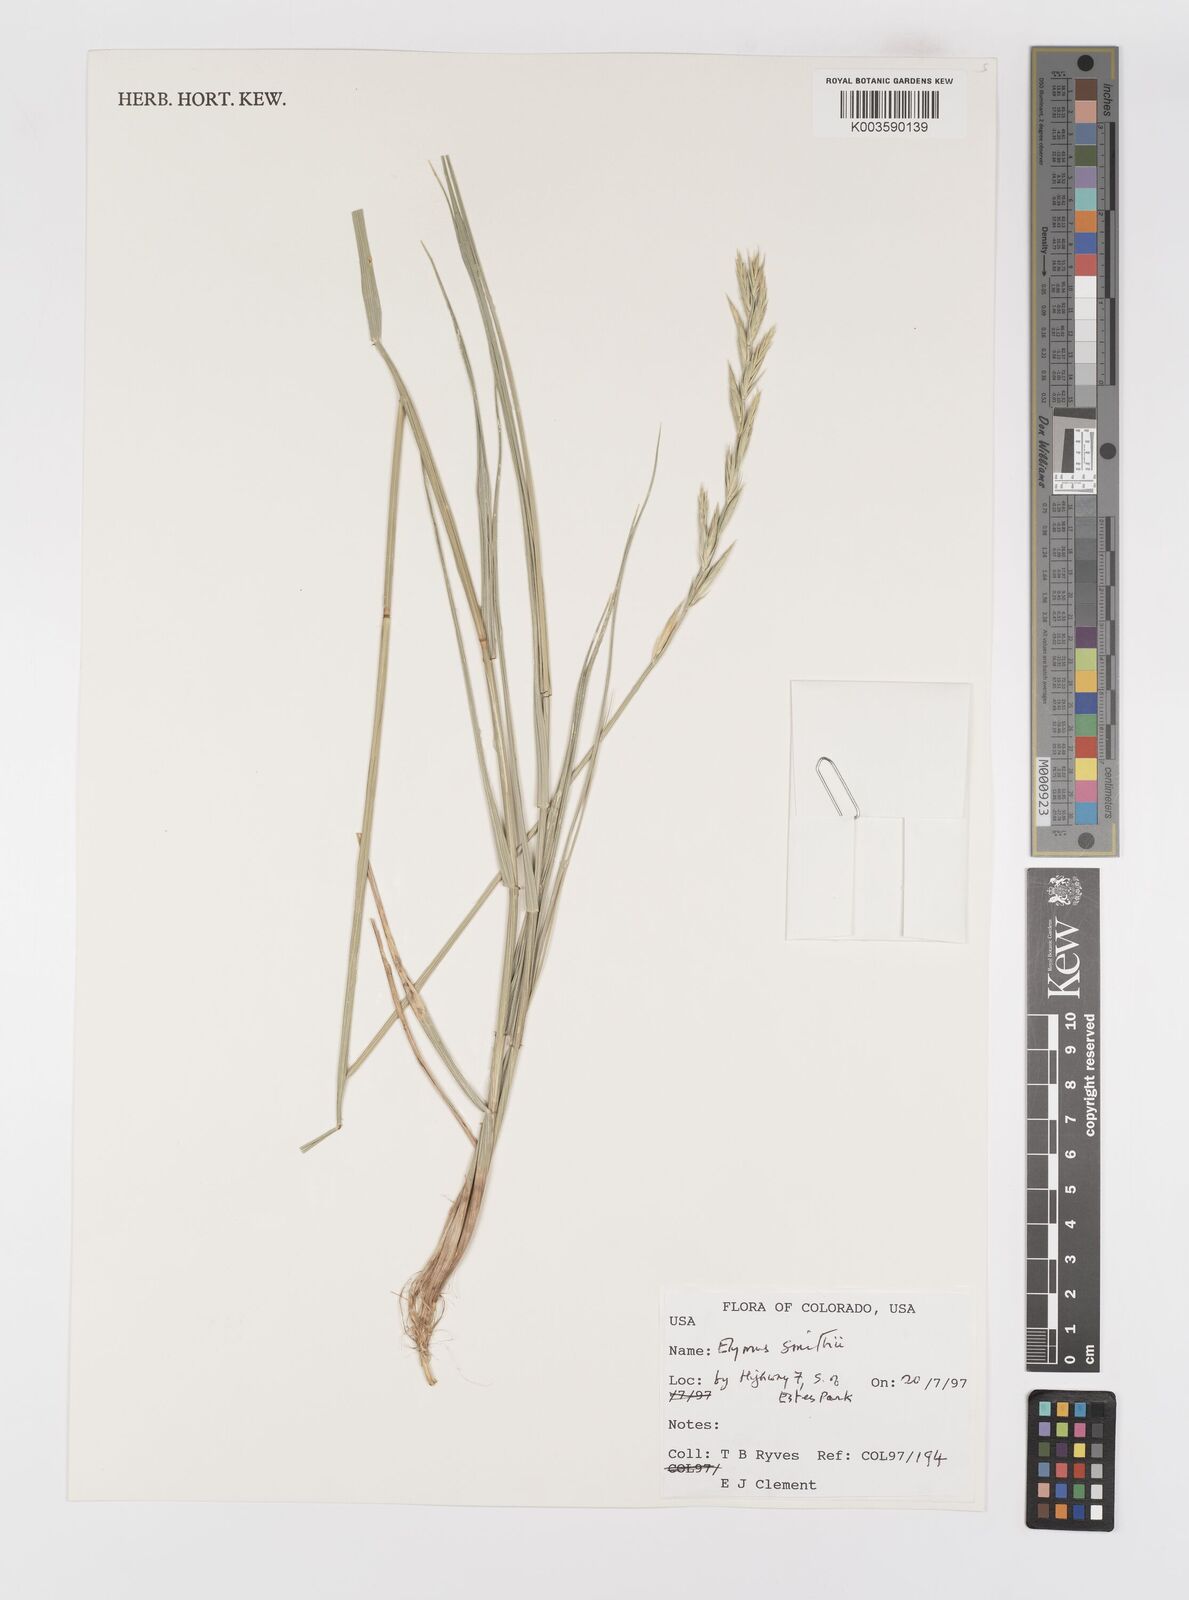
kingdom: Plantae
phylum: Tracheophyta
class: Liliopsida
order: Poales
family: Poaceae
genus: Elymus
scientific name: Elymus smithii
